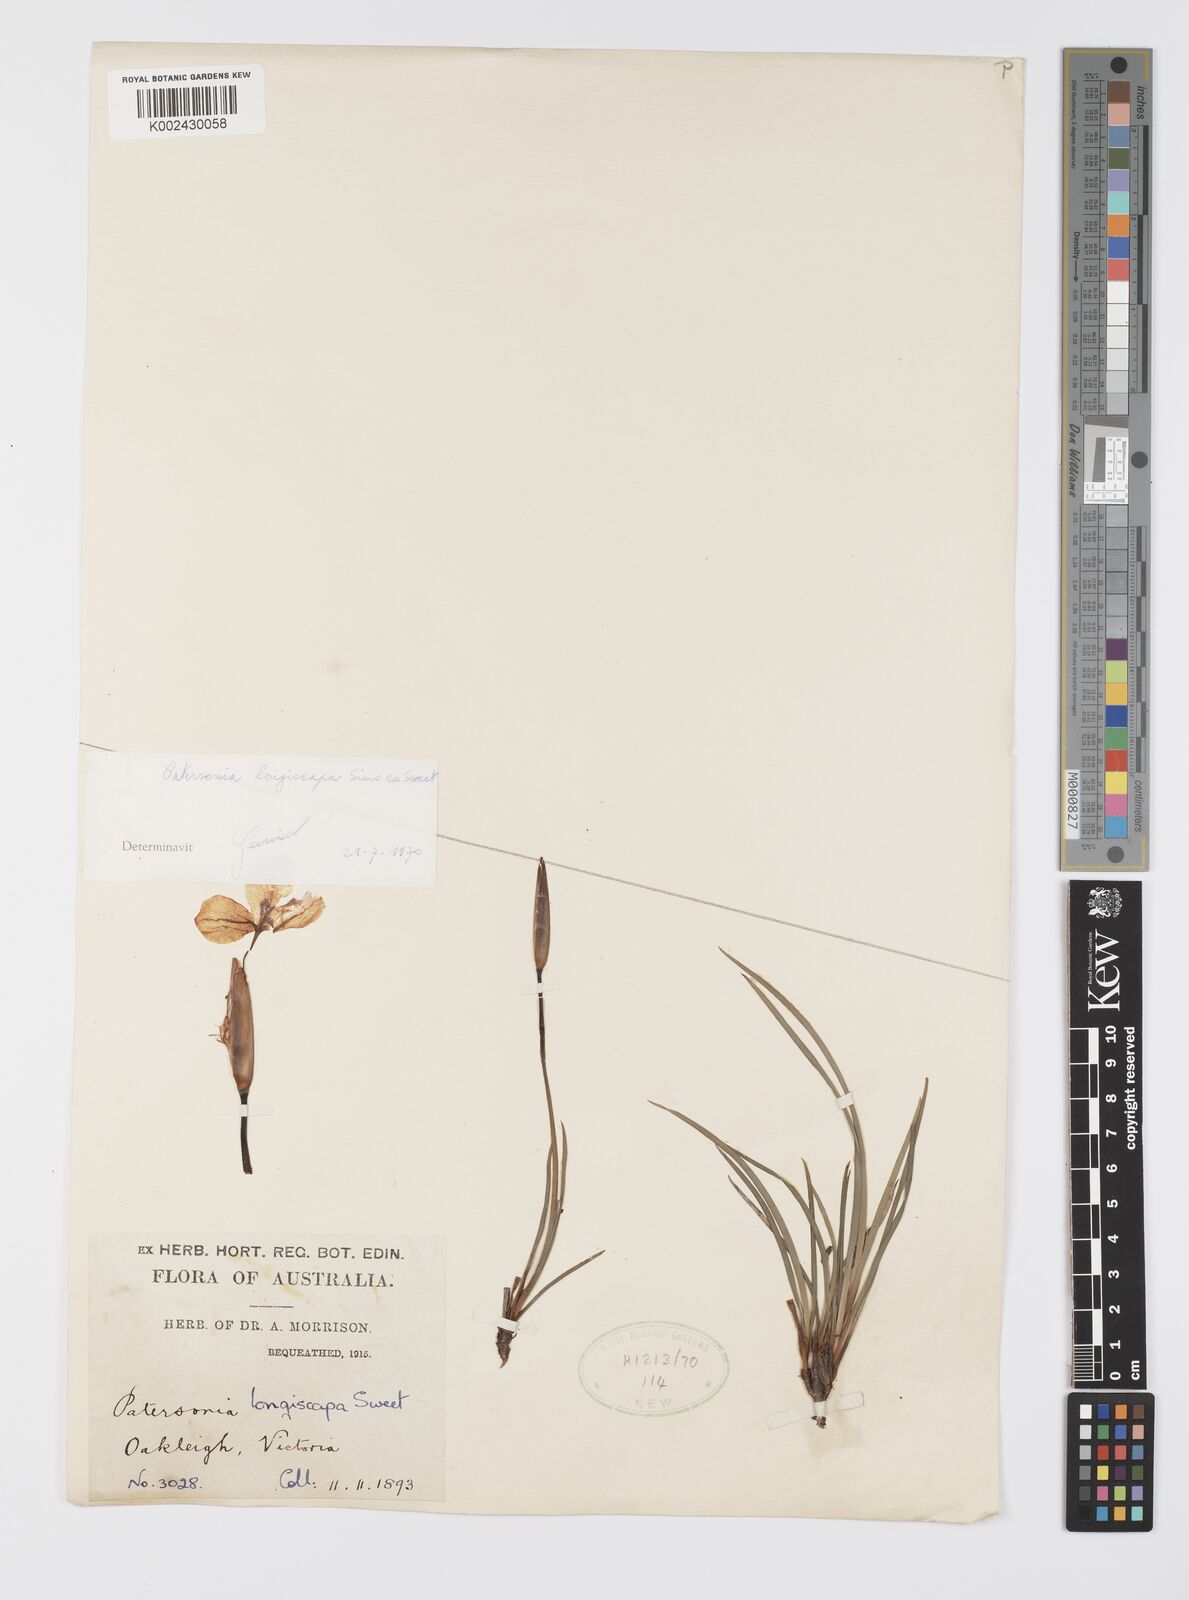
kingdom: Plantae
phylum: Tracheophyta
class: Liliopsida
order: Asparagales
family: Iridaceae
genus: Patersonia
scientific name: Patersonia occidentalis
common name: Long purple-flag
